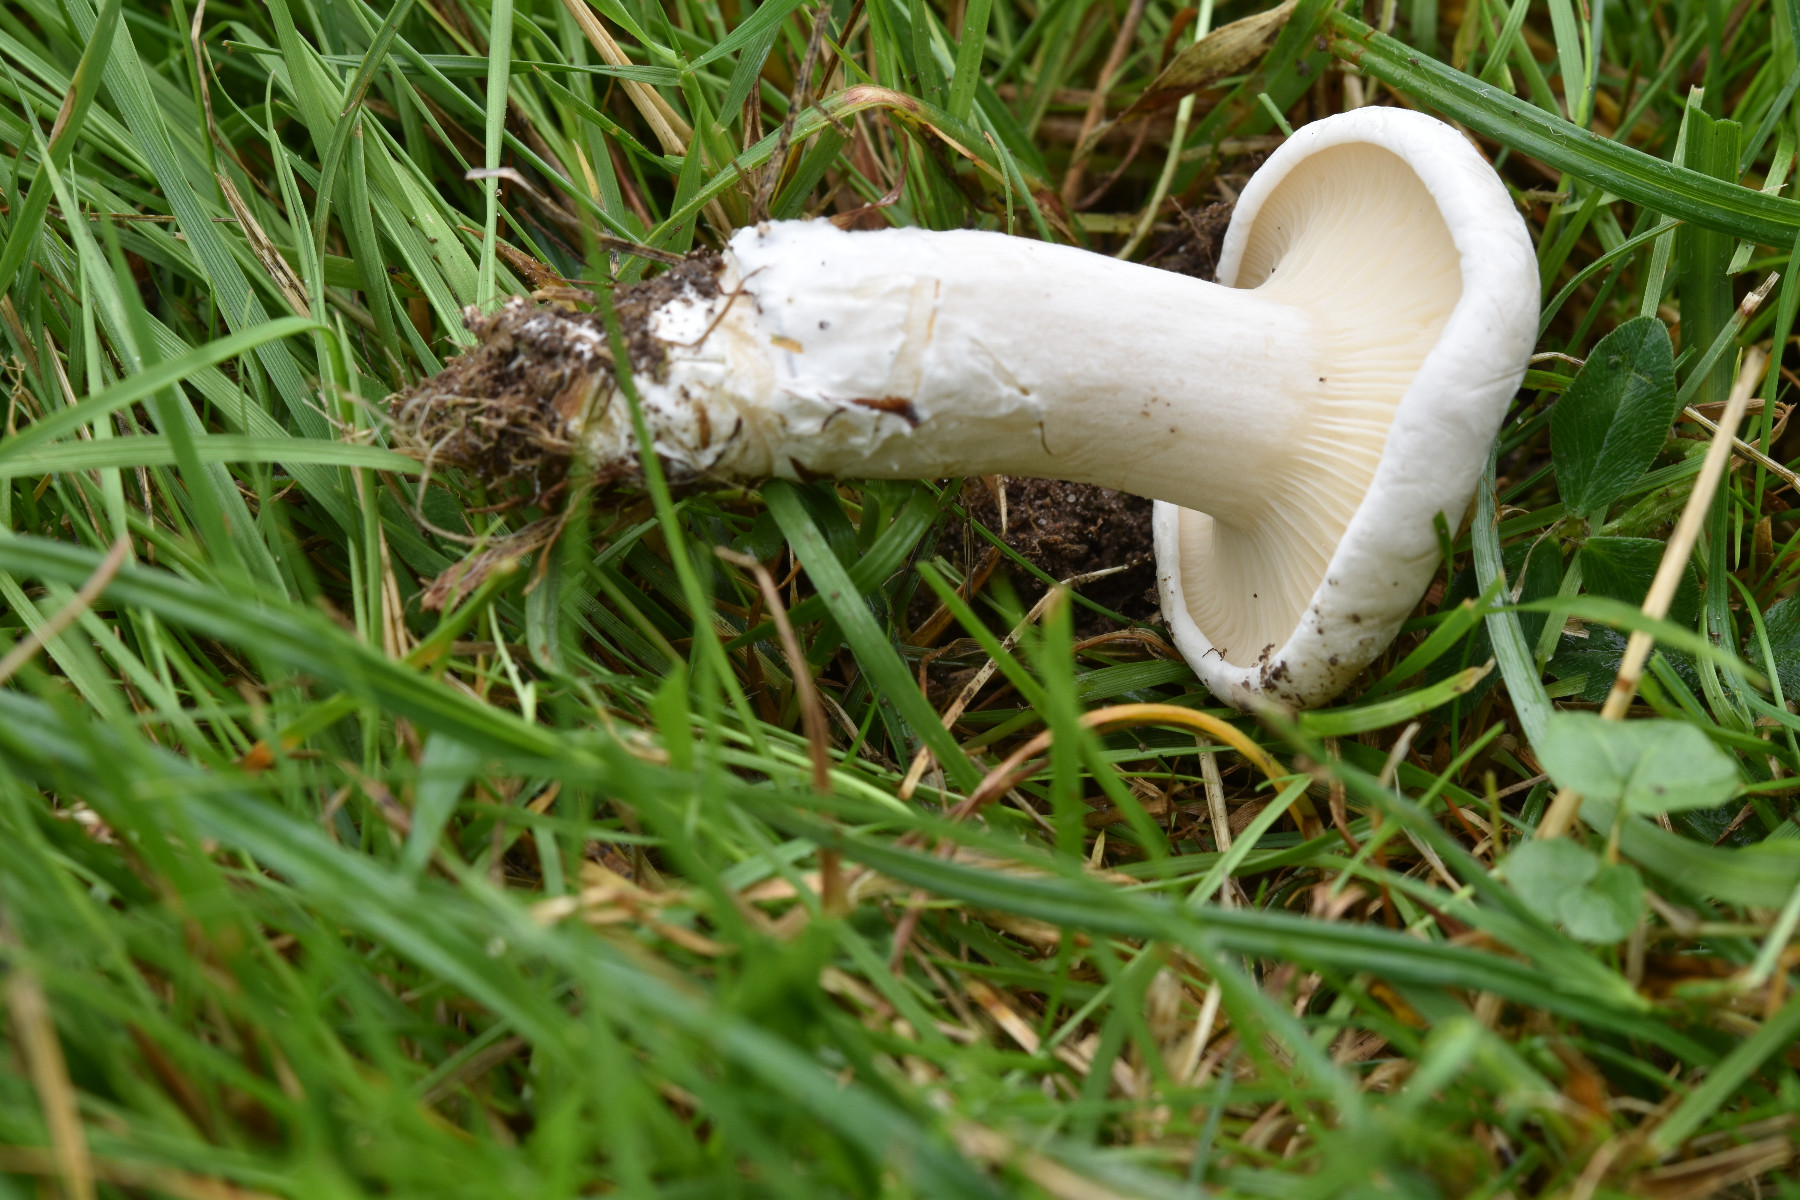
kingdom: Fungi
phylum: Basidiomycota
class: Agaricomycetes
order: Agaricales
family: Entolomataceae
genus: Clitopilus
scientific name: Clitopilus prunulus
